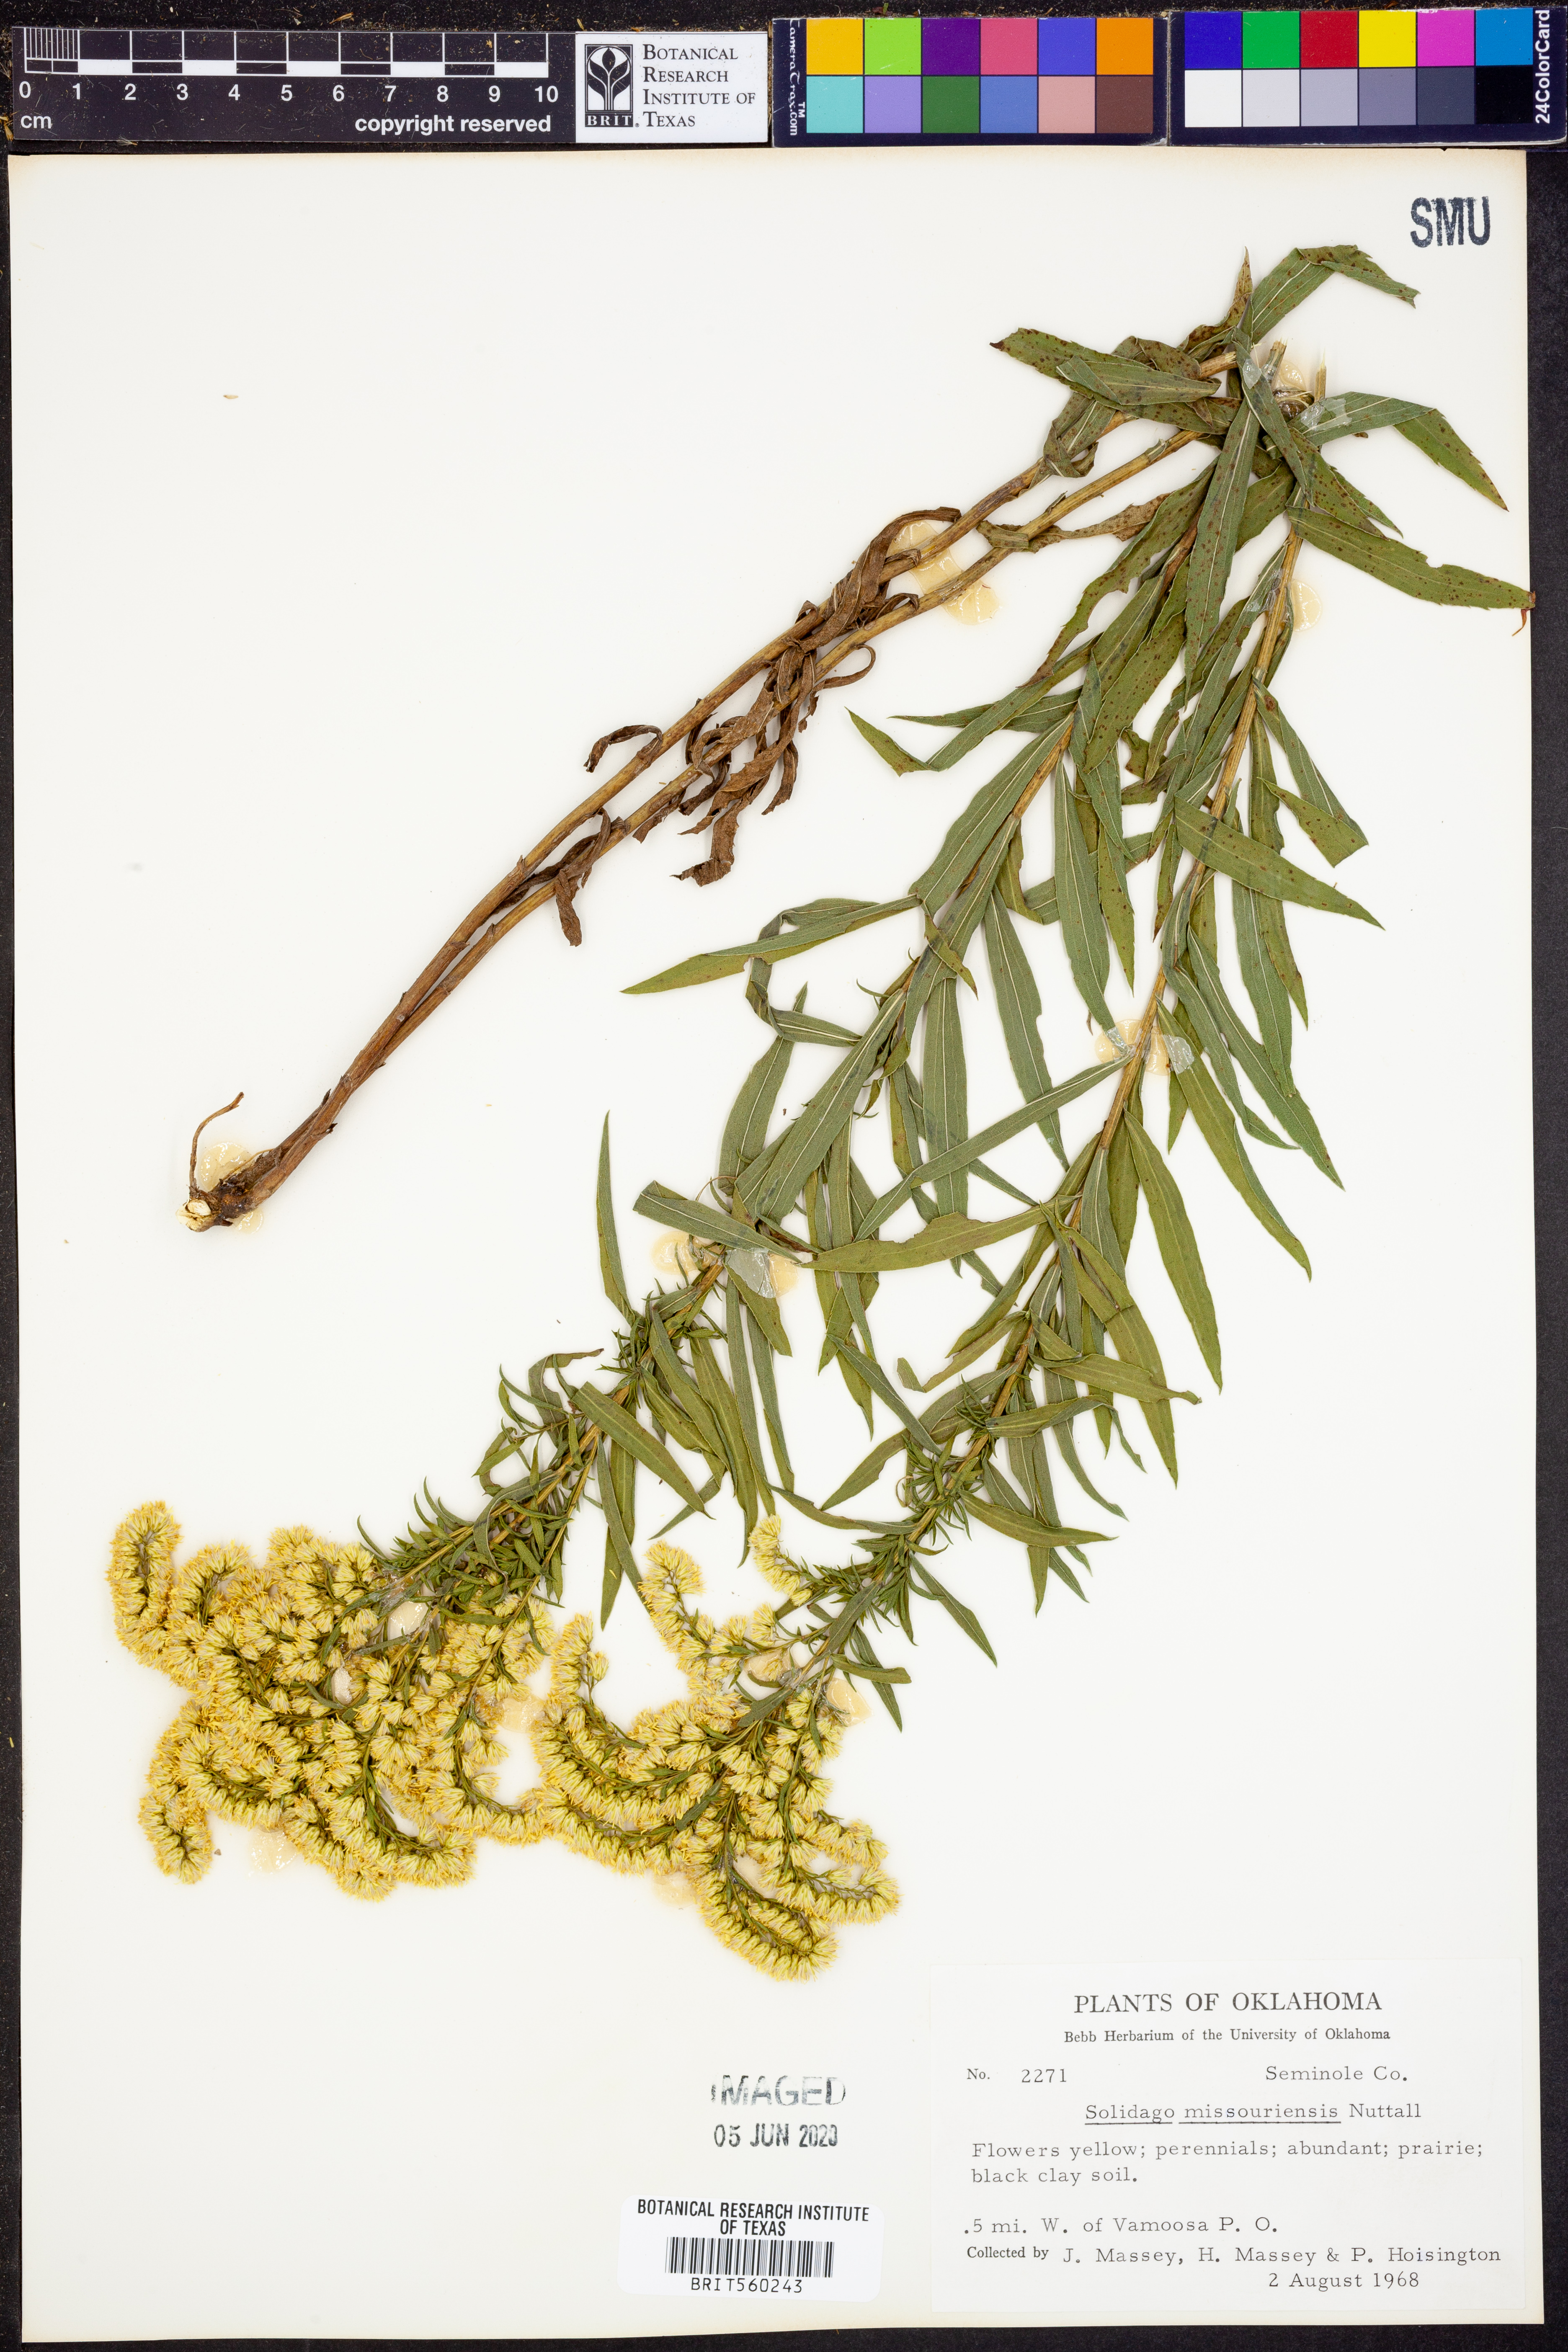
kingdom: Plantae
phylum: Tracheophyta
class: Magnoliopsida
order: Asterales
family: Asteraceae
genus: Solidago
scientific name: Solidago missouriensis
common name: Prairie goldenrod
